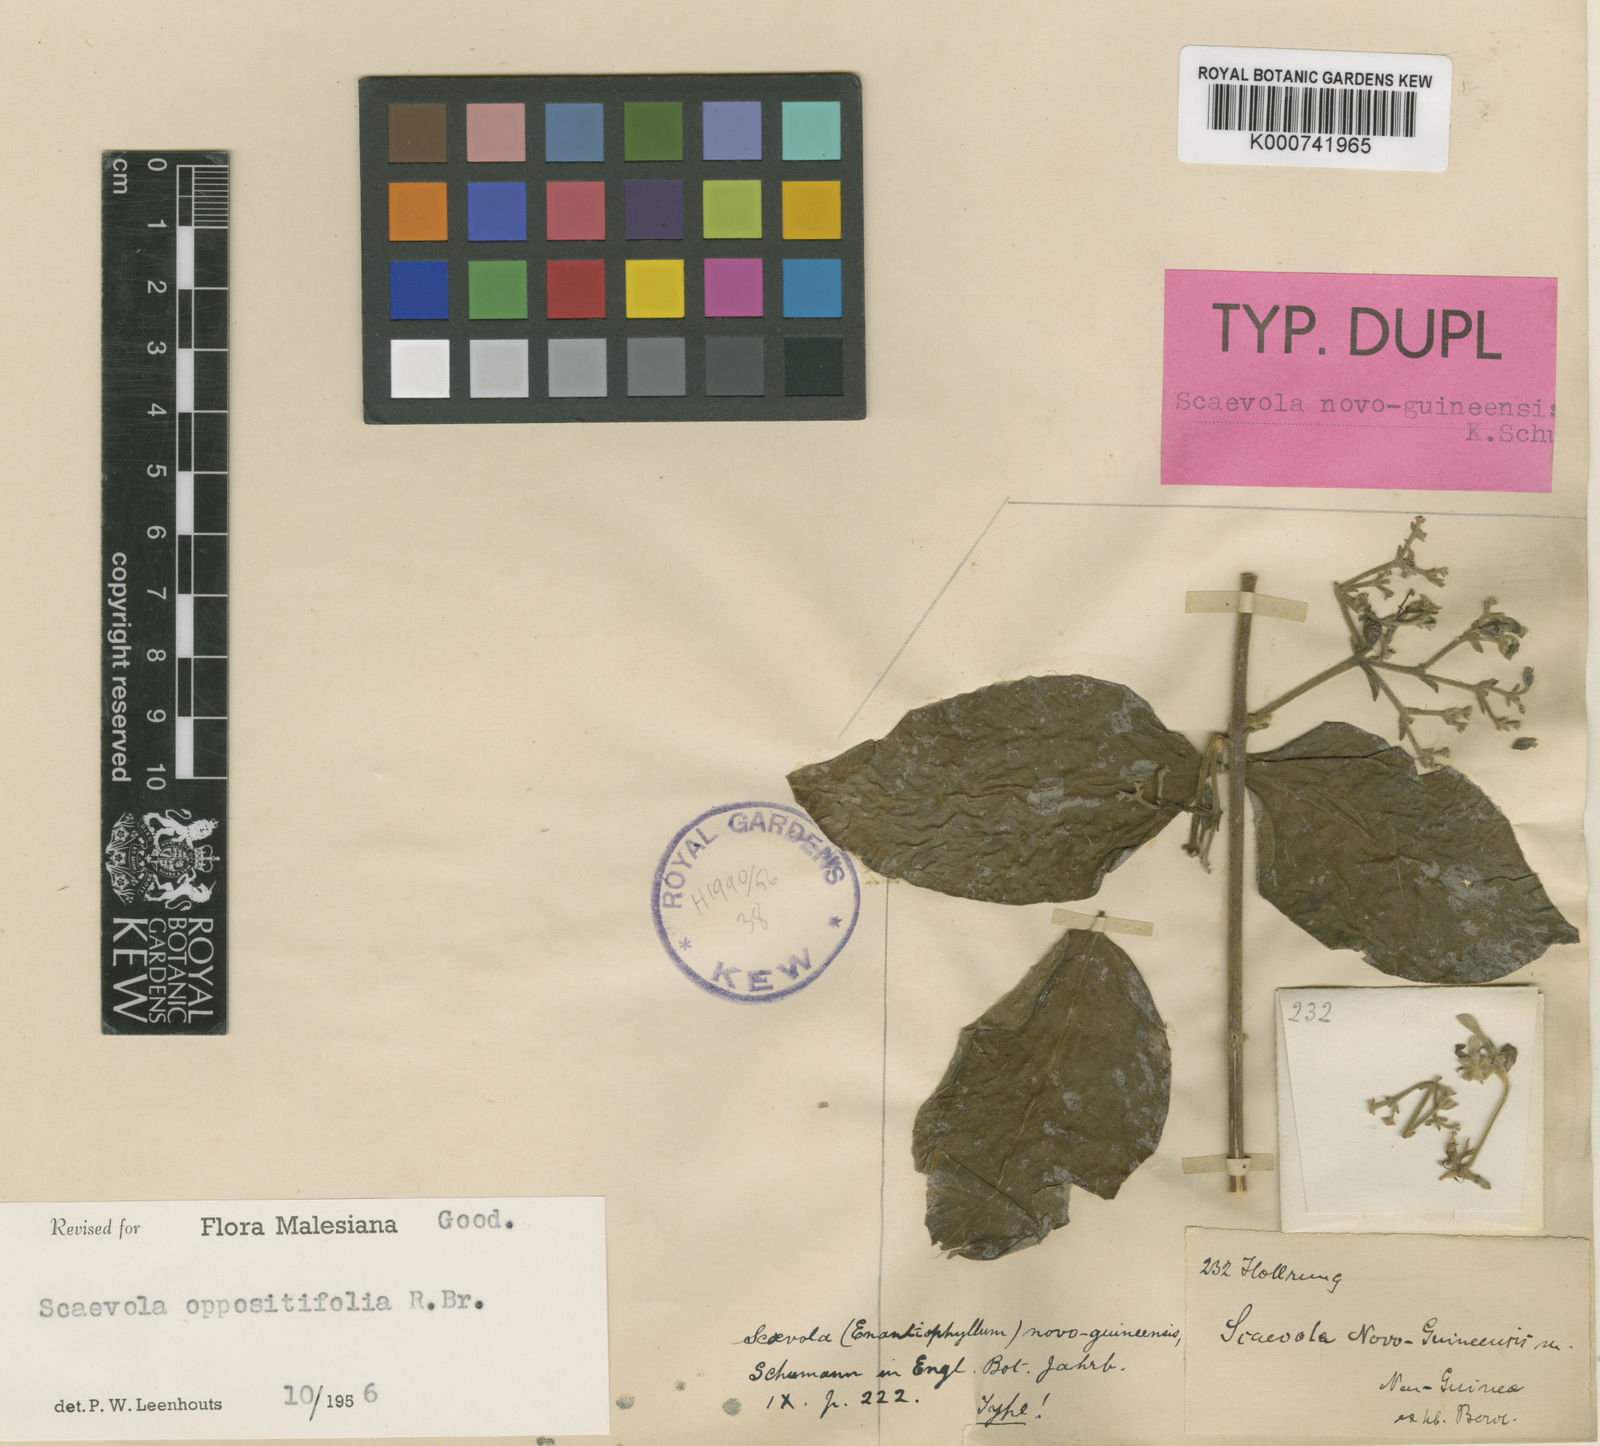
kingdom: Plantae
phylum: Tracheophyta
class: Magnoliopsida
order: Asterales
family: Goodeniaceae
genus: Scaevola
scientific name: Scaevola oppositifolia
